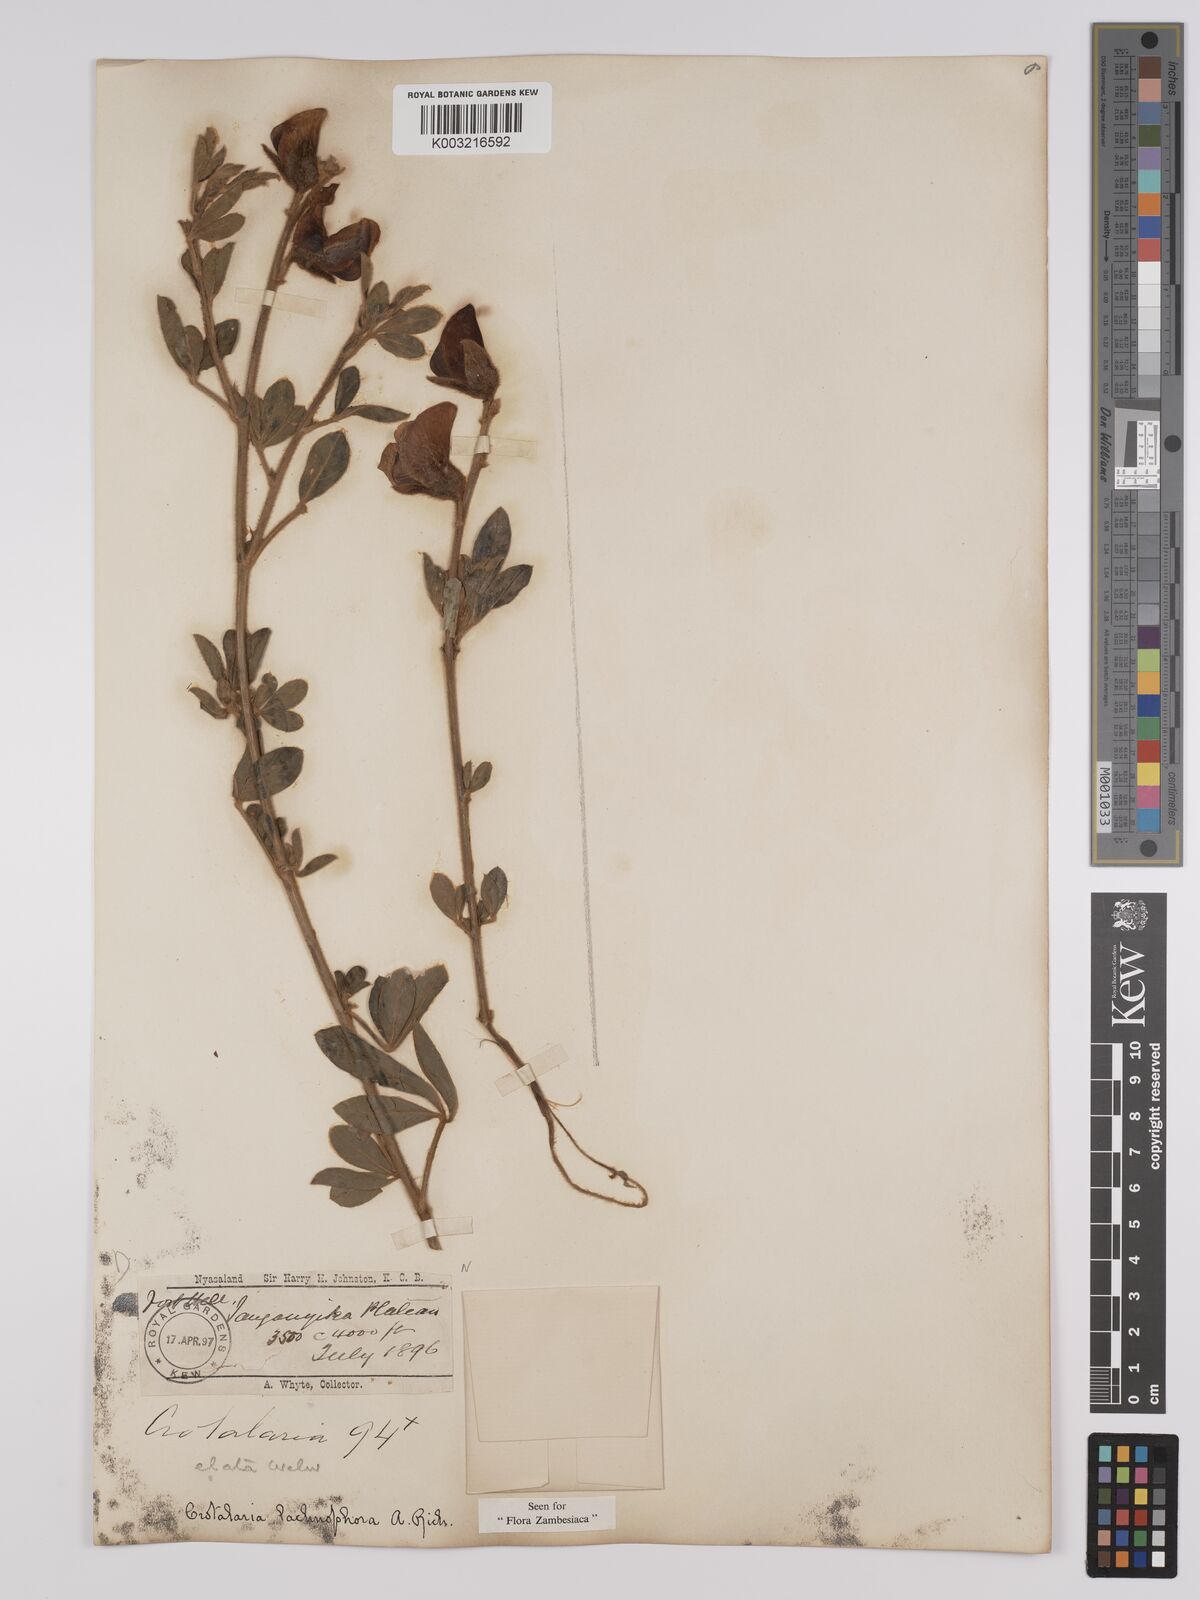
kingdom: Plantae
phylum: Tracheophyta
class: Magnoliopsida
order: Fabales
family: Fabaceae
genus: Crotalaria
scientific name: Crotalaria lachnophora
